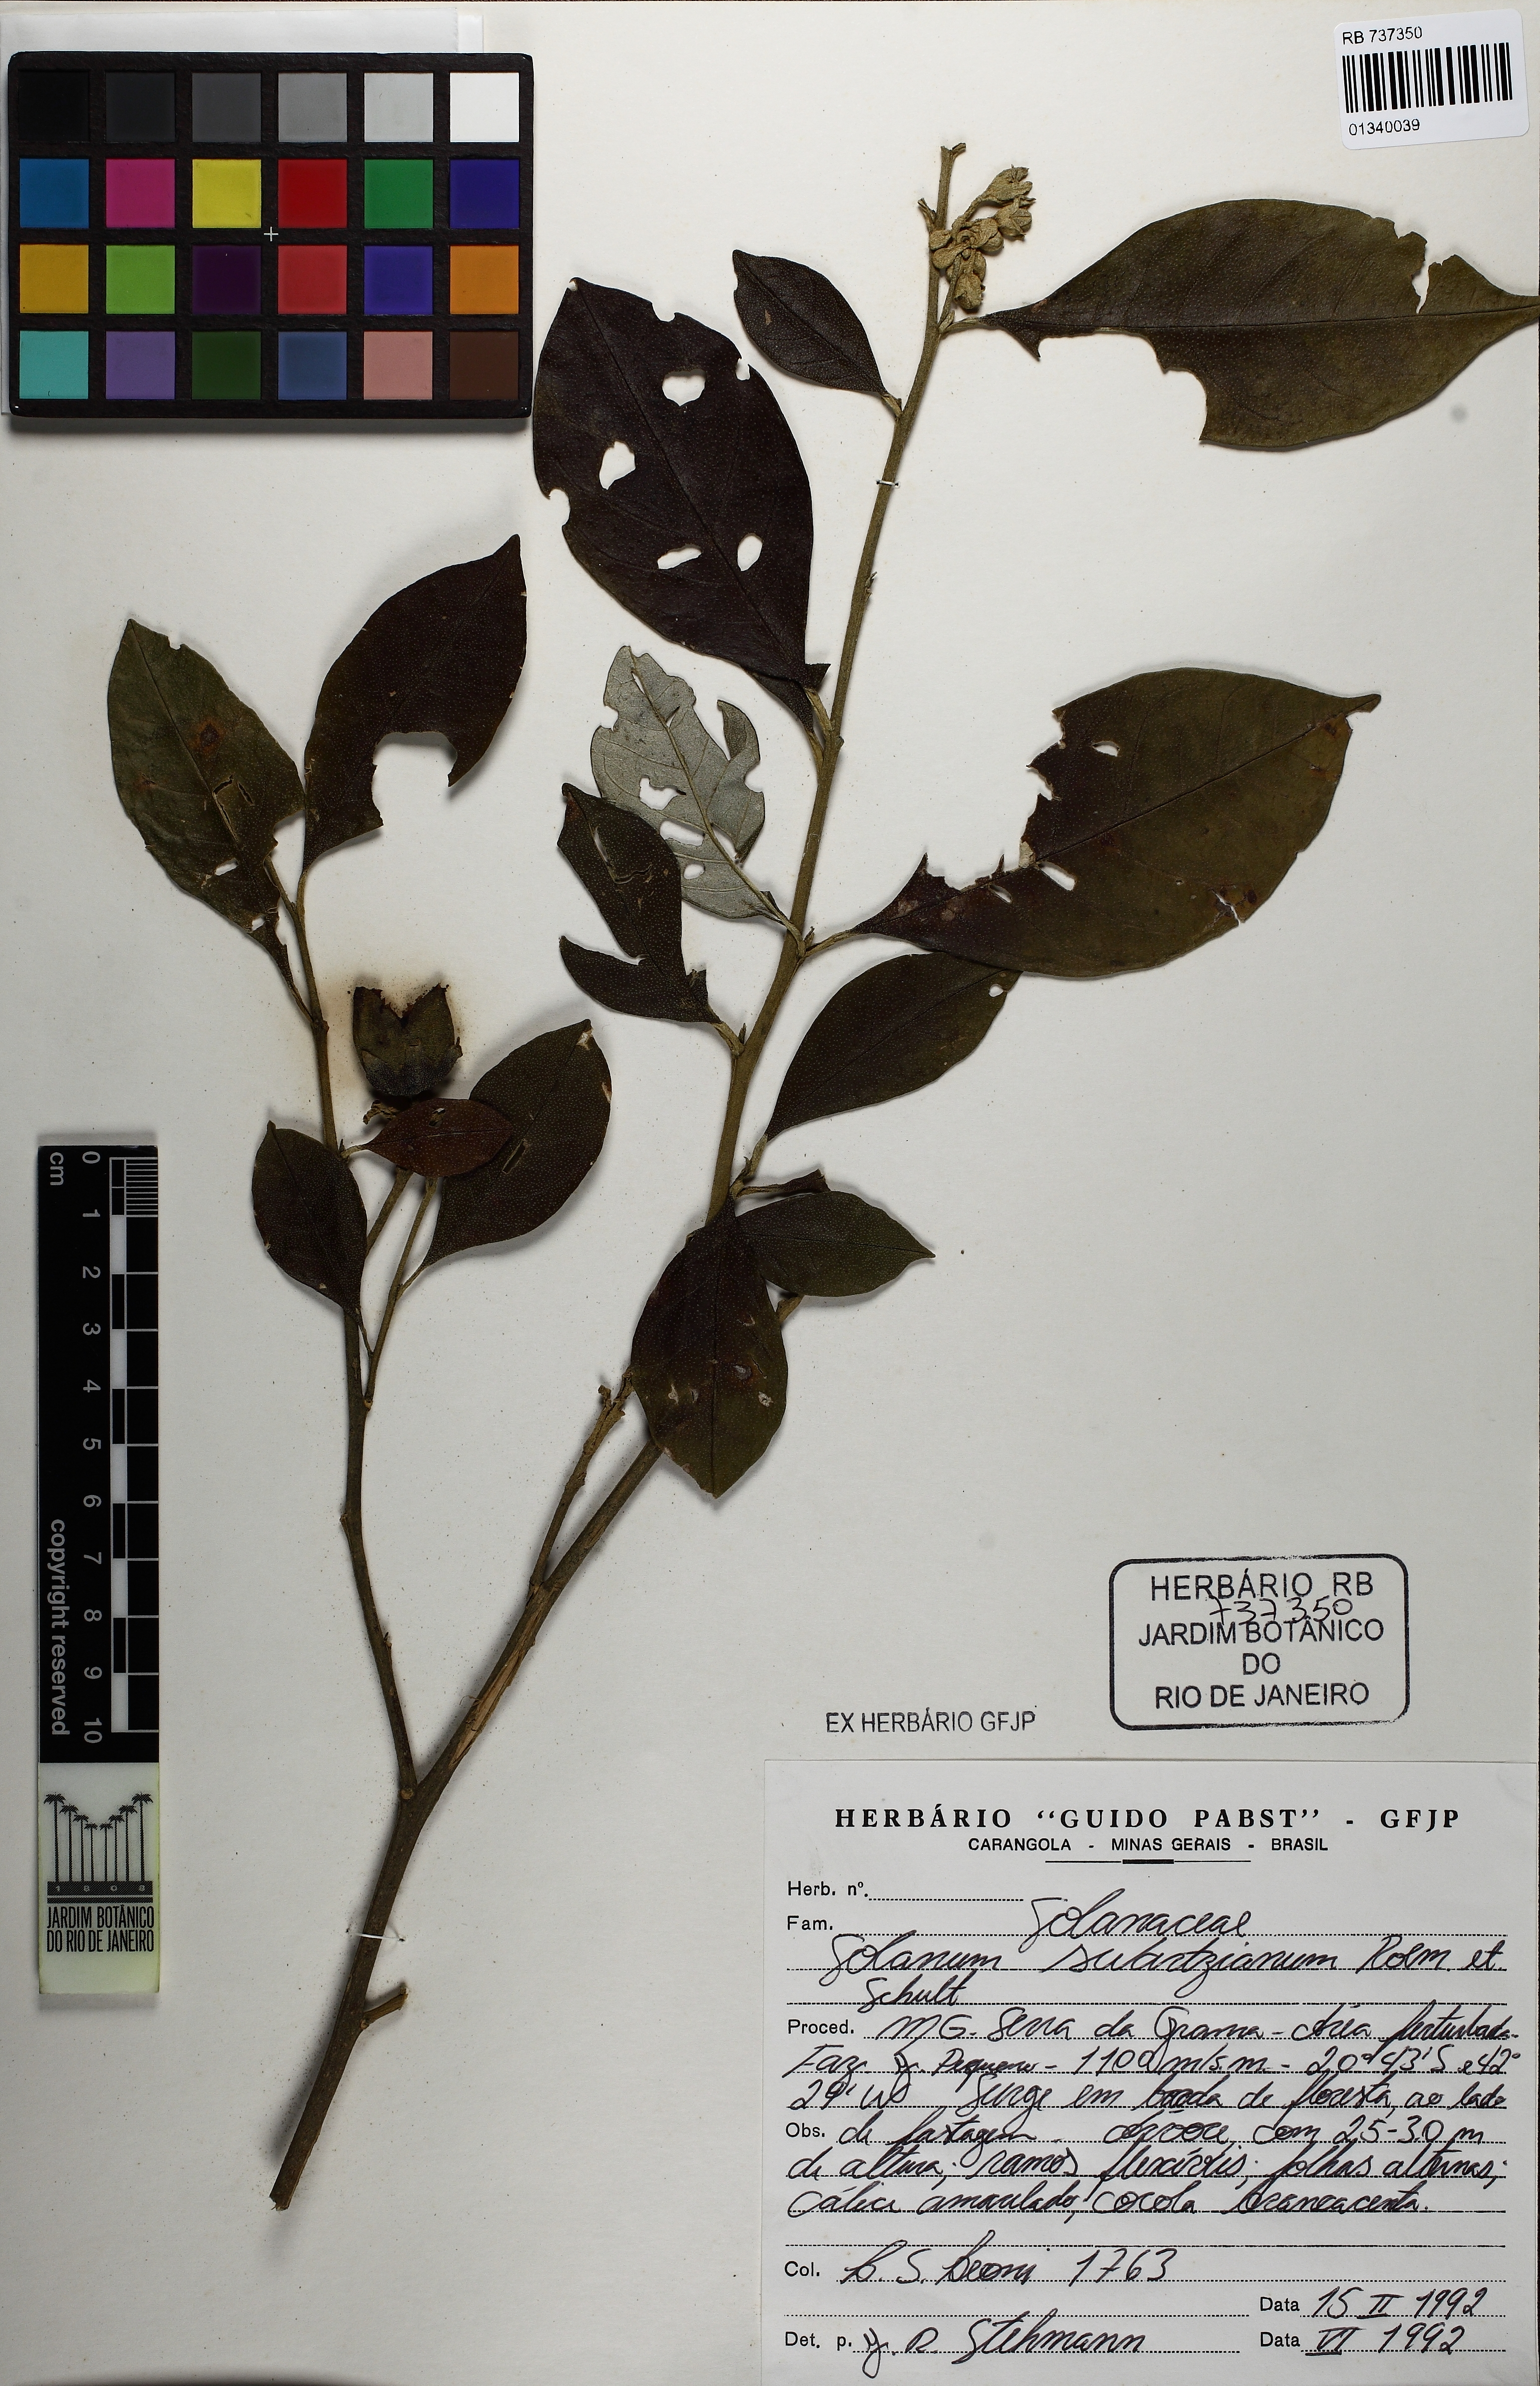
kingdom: Plantae
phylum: Tracheophyta
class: Magnoliopsida
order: Solanales
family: Solanaceae
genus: Solanum
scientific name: Solanum swartzianum
